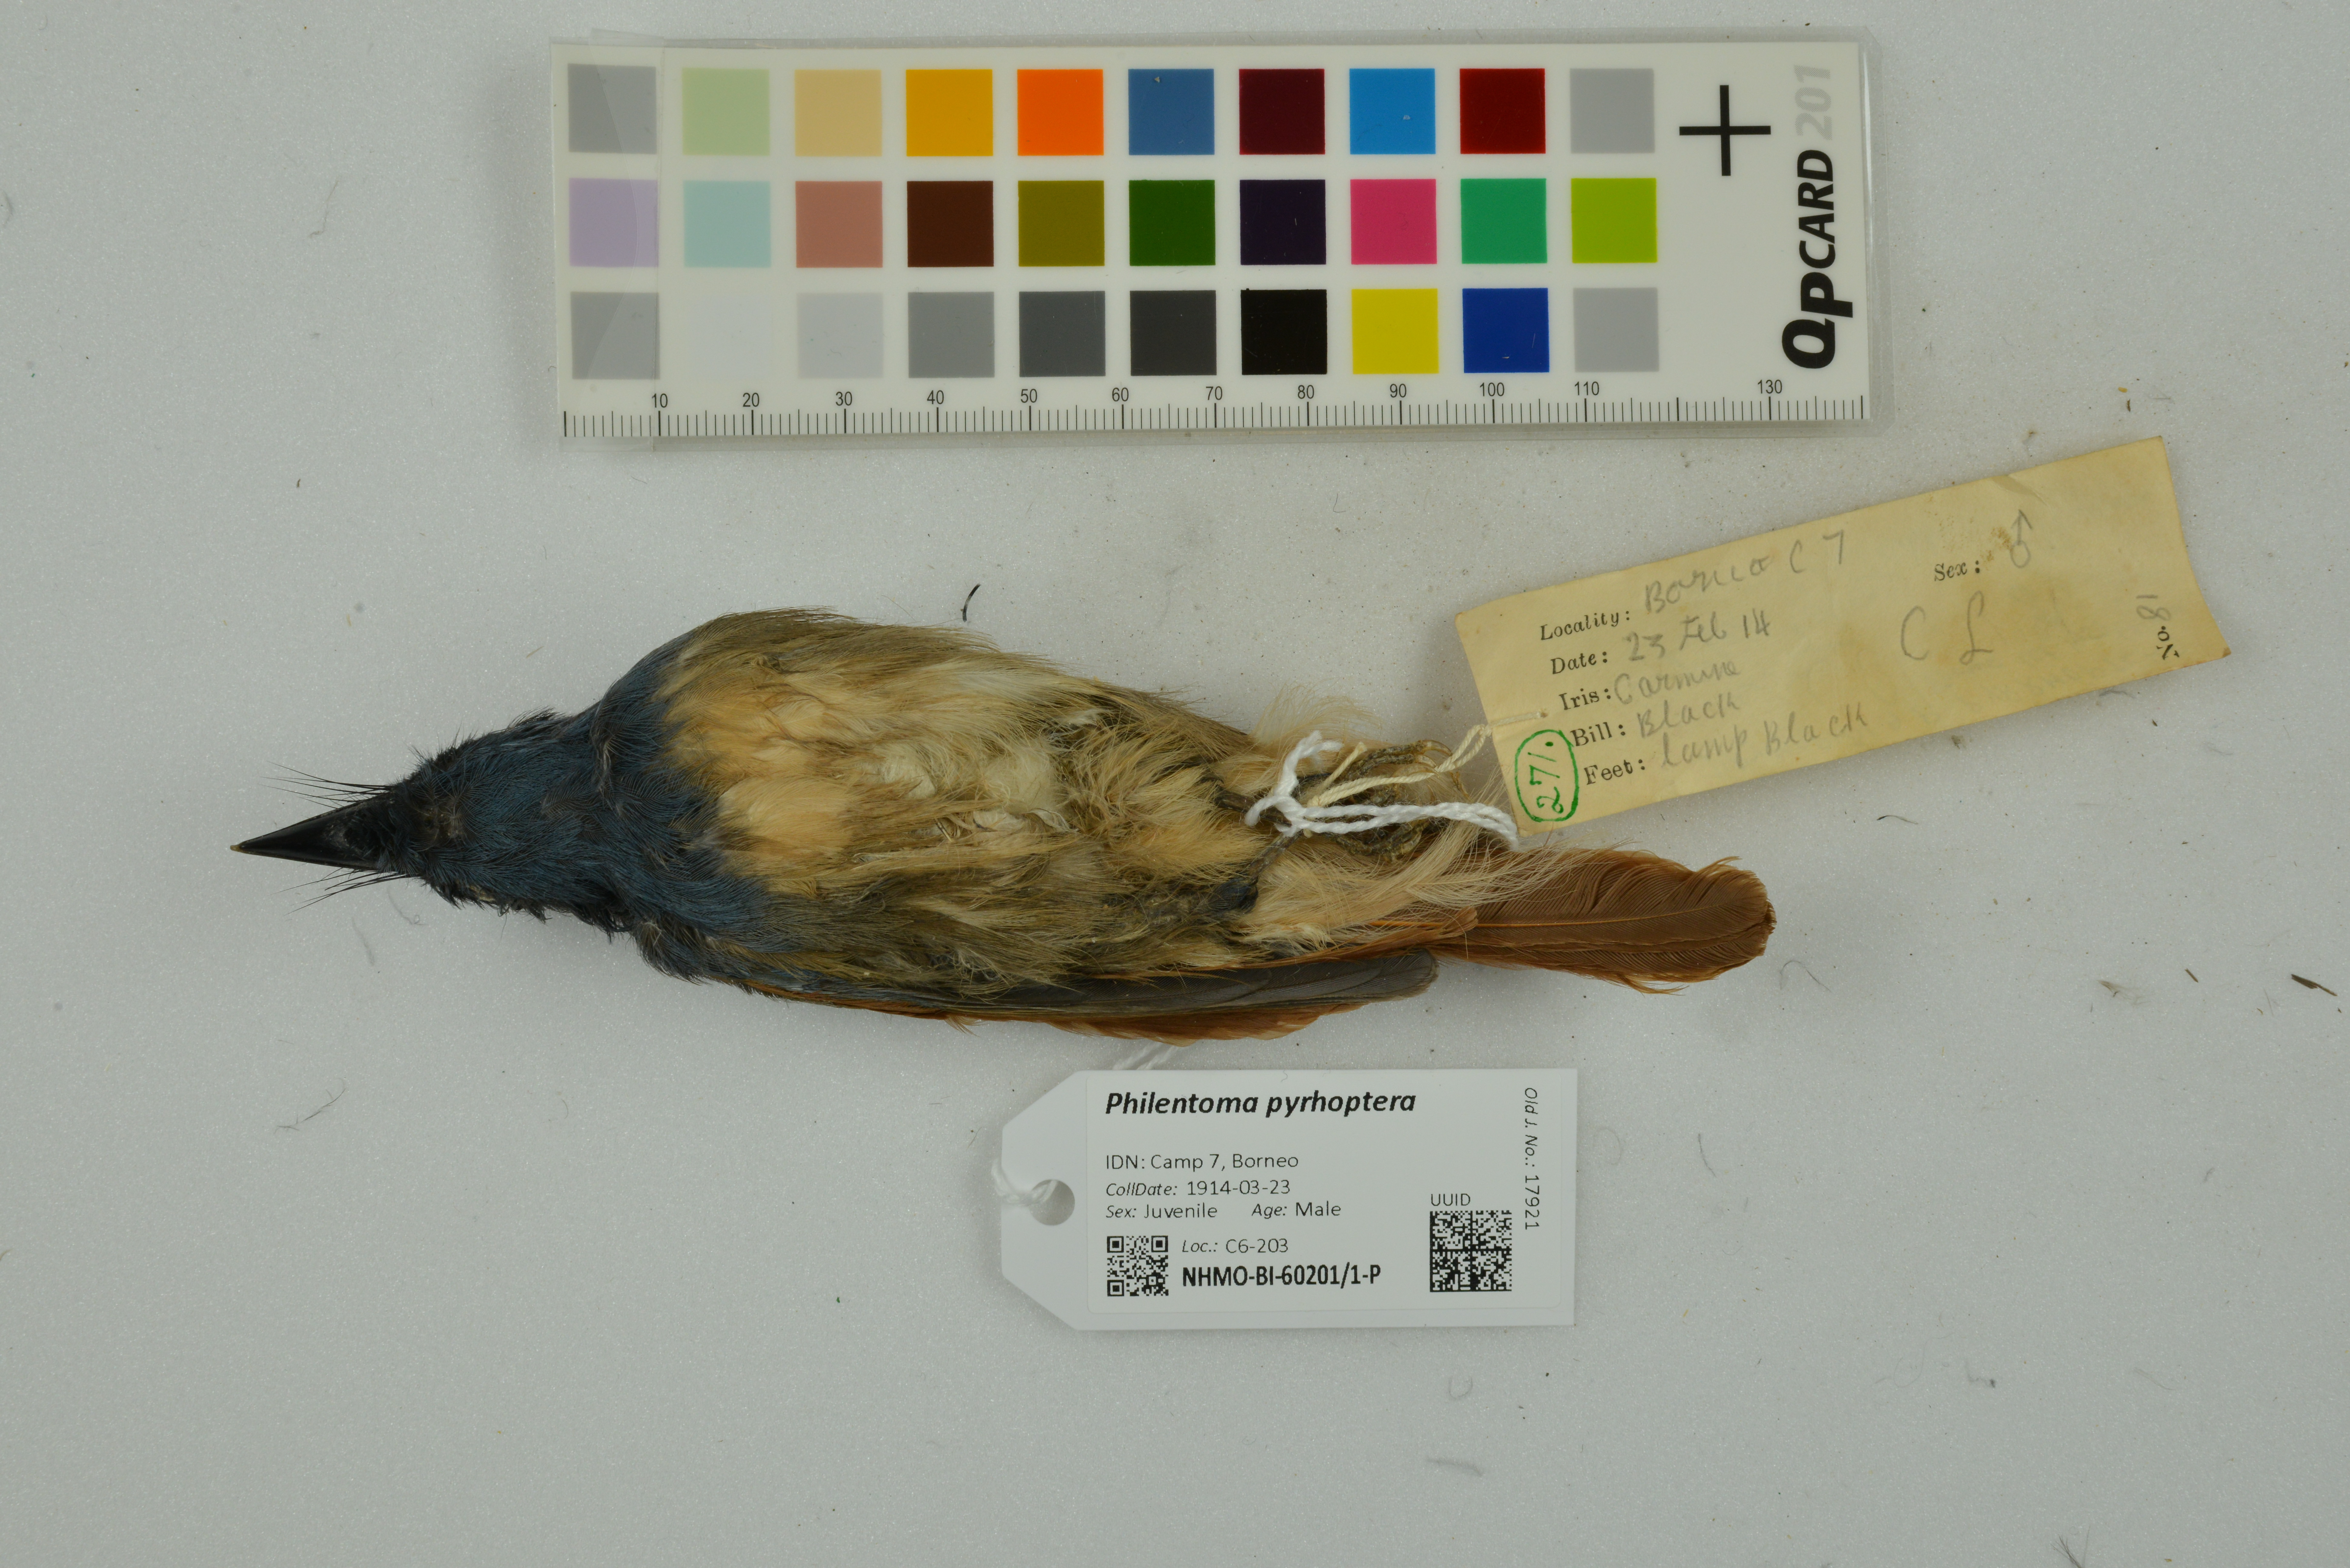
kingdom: Animalia
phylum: Chordata
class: Aves
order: Passeriformes
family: Tephrodornithidae
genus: Philentoma
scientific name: Philentoma pyrhoptera
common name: Rufous-winged philentoma
